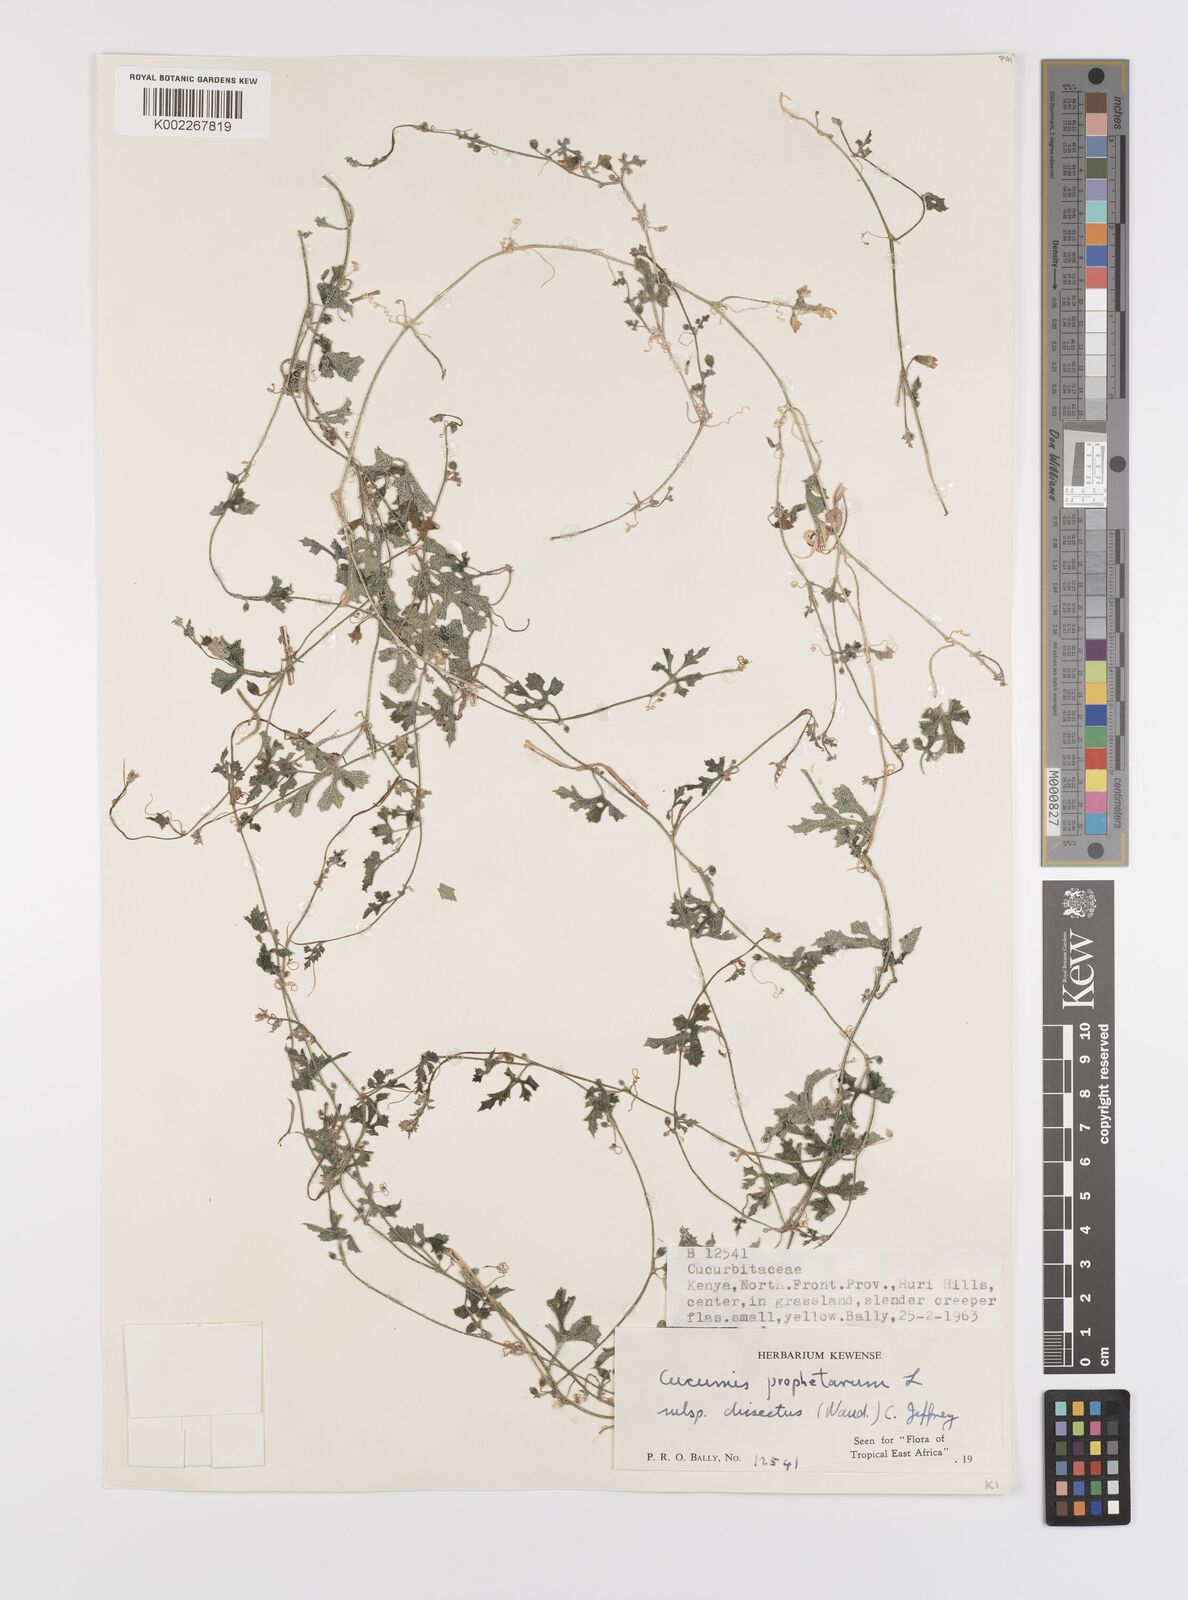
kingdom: Plantae
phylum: Tracheophyta
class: Magnoliopsida
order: Cucurbitales
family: Cucurbitaceae
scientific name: Cucurbitaceae
